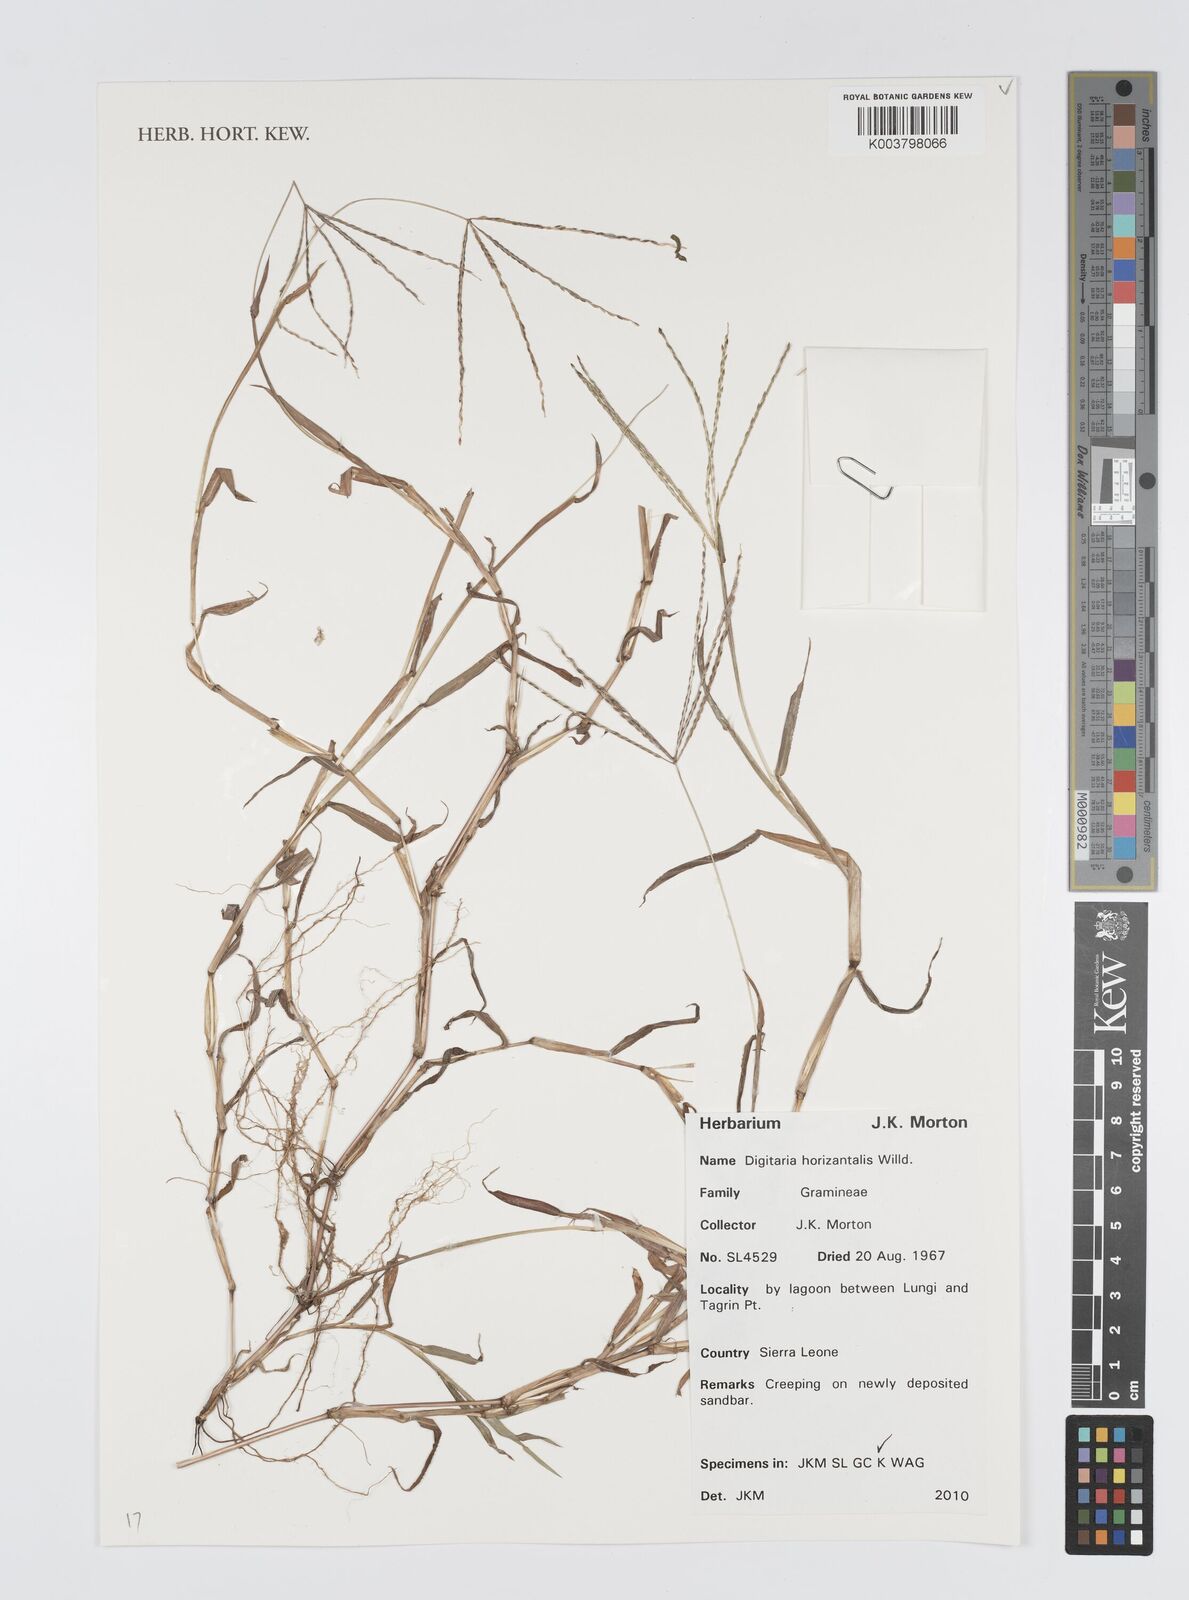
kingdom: Plantae
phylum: Tracheophyta
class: Liliopsida
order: Poales
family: Poaceae
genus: Digitaria
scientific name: Digitaria horizontalis
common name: Jamaican crabgrass
